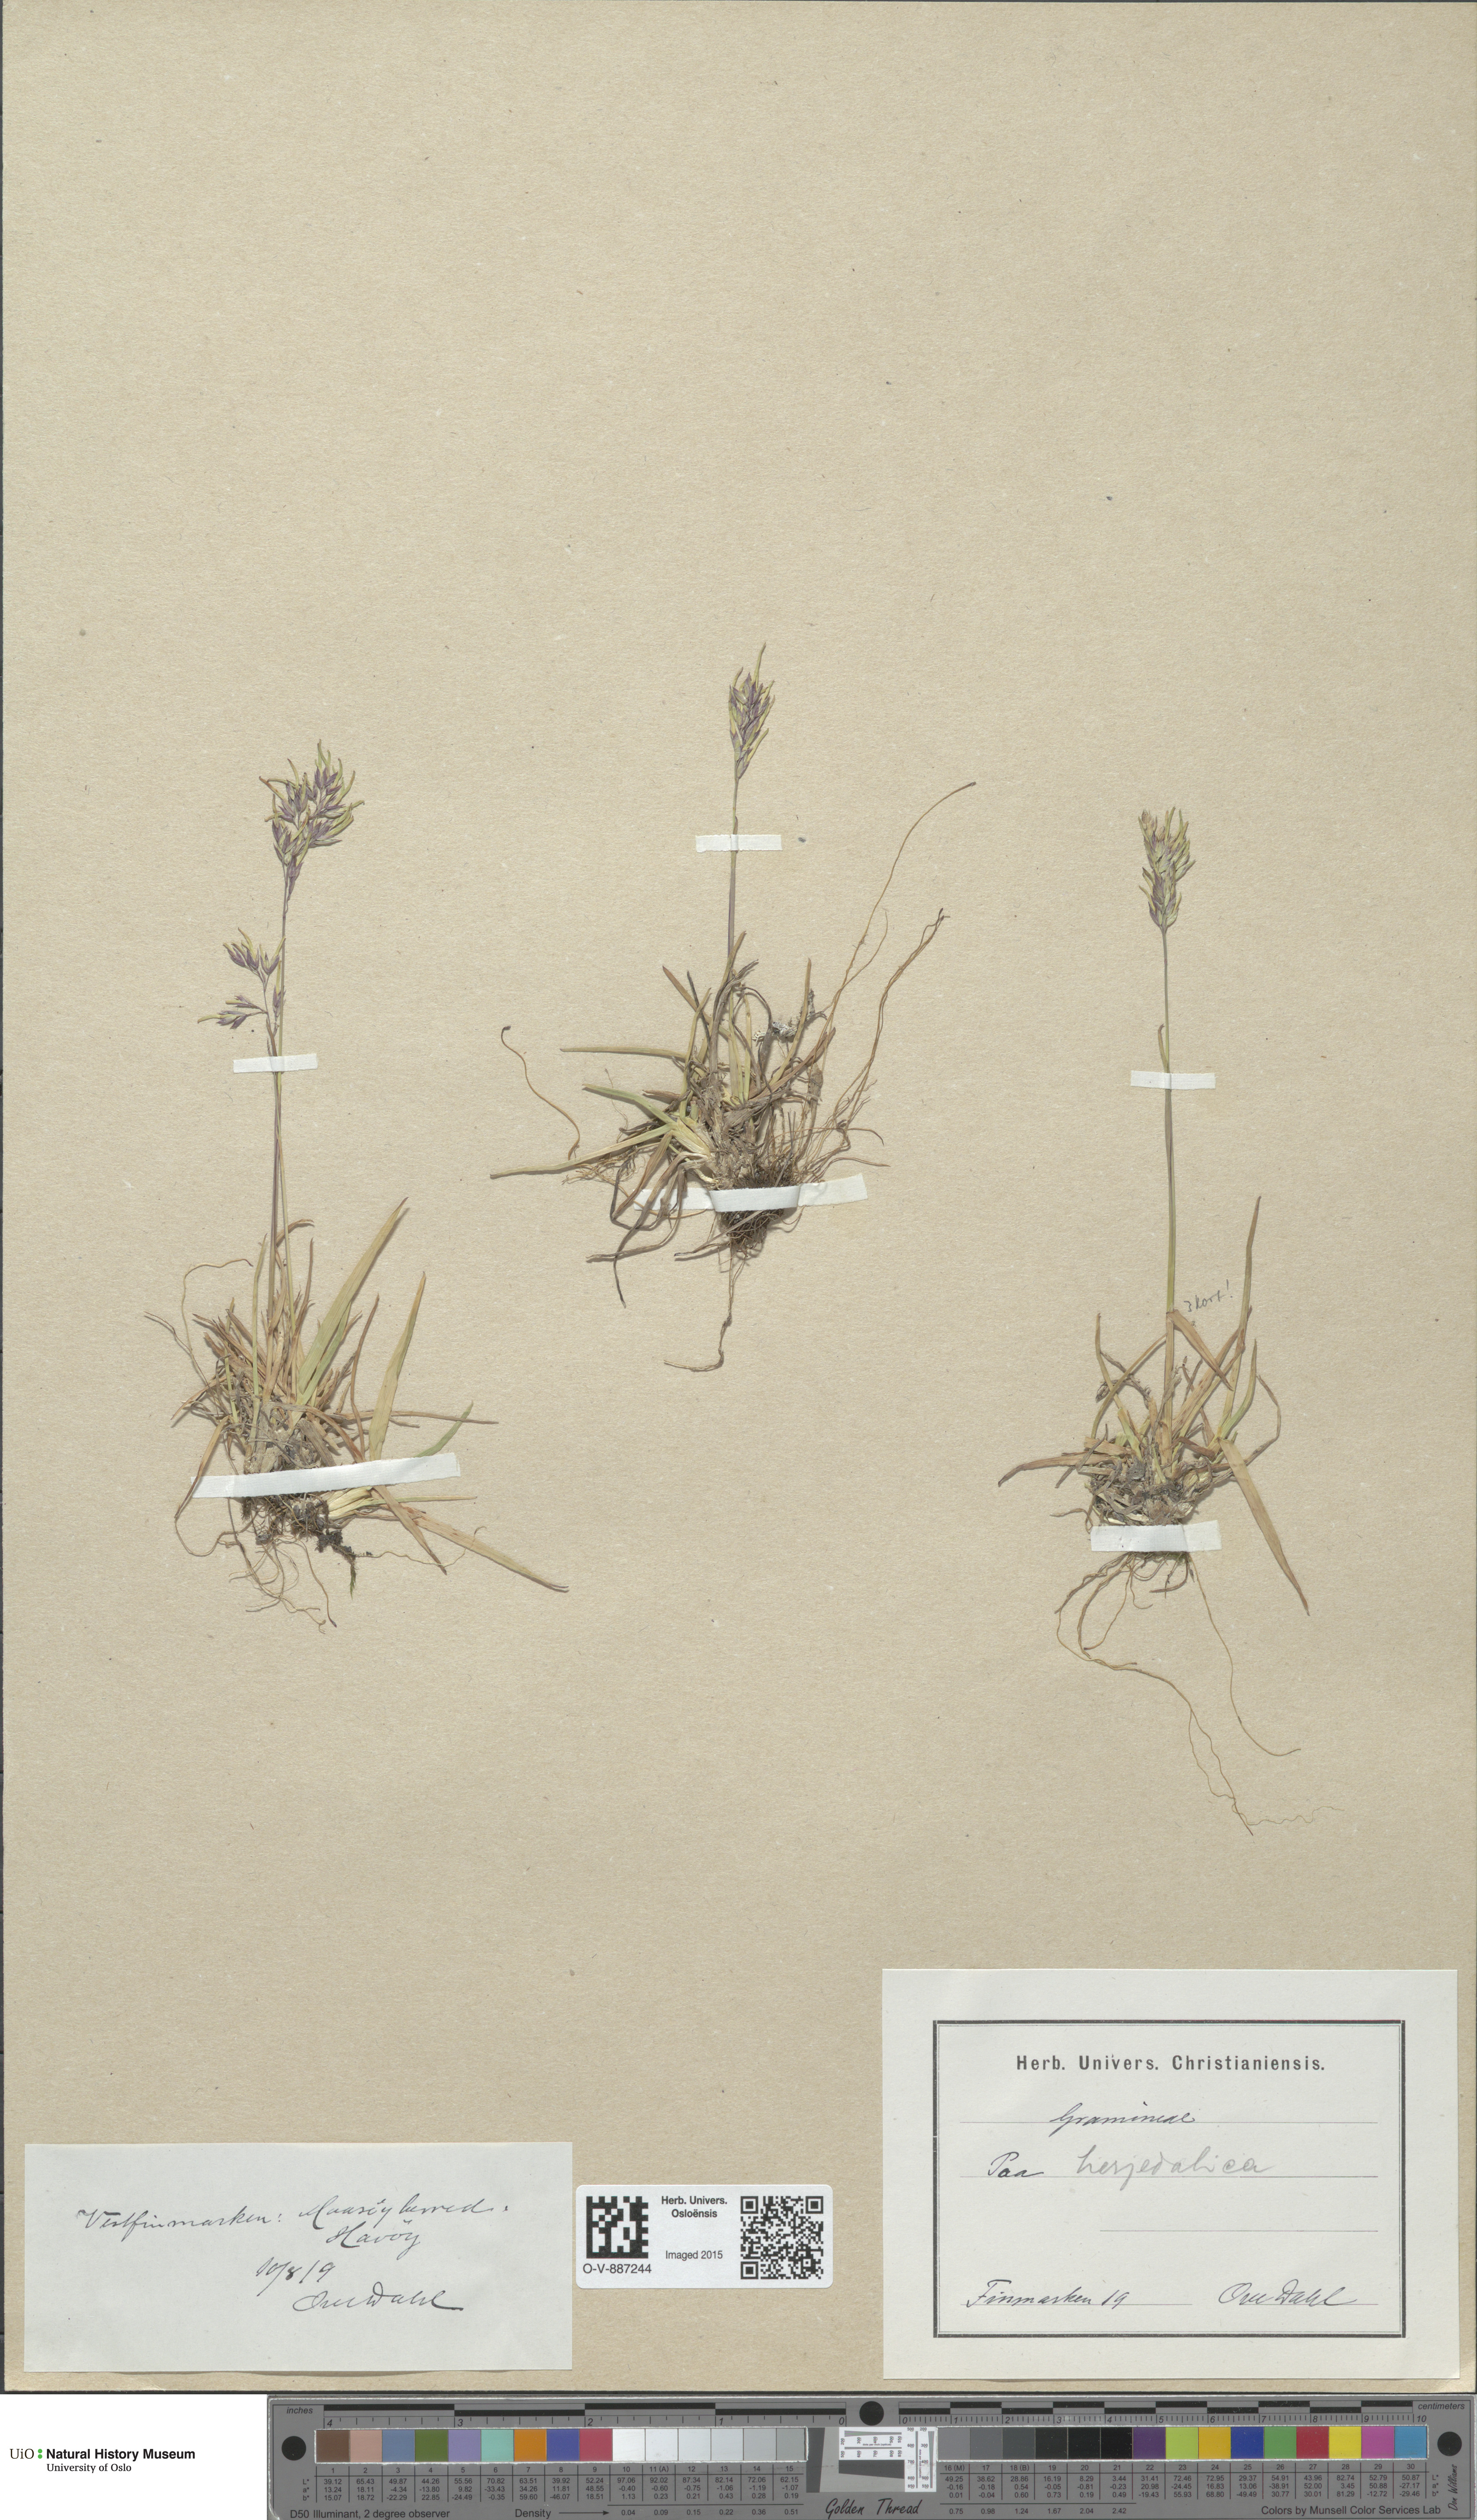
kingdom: Plantae
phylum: Tracheophyta
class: Liliopsida
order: Poales
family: Poaceae
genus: Poa
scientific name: Poa herjedalica
